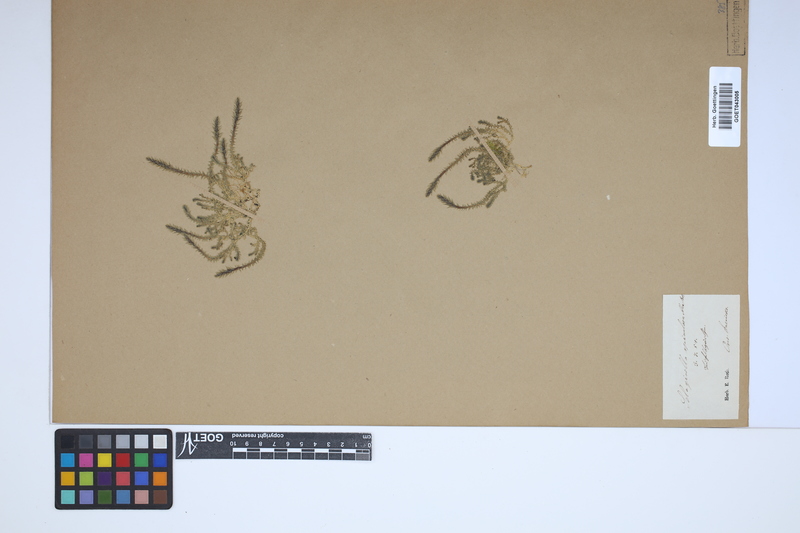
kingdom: Plantae
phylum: Tracheophyta
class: Lycopodiopsida
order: Selaginellales
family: Selaginellaceae
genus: Selaginella
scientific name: Selaginella selaginoides
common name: Prickly mountain-moss
